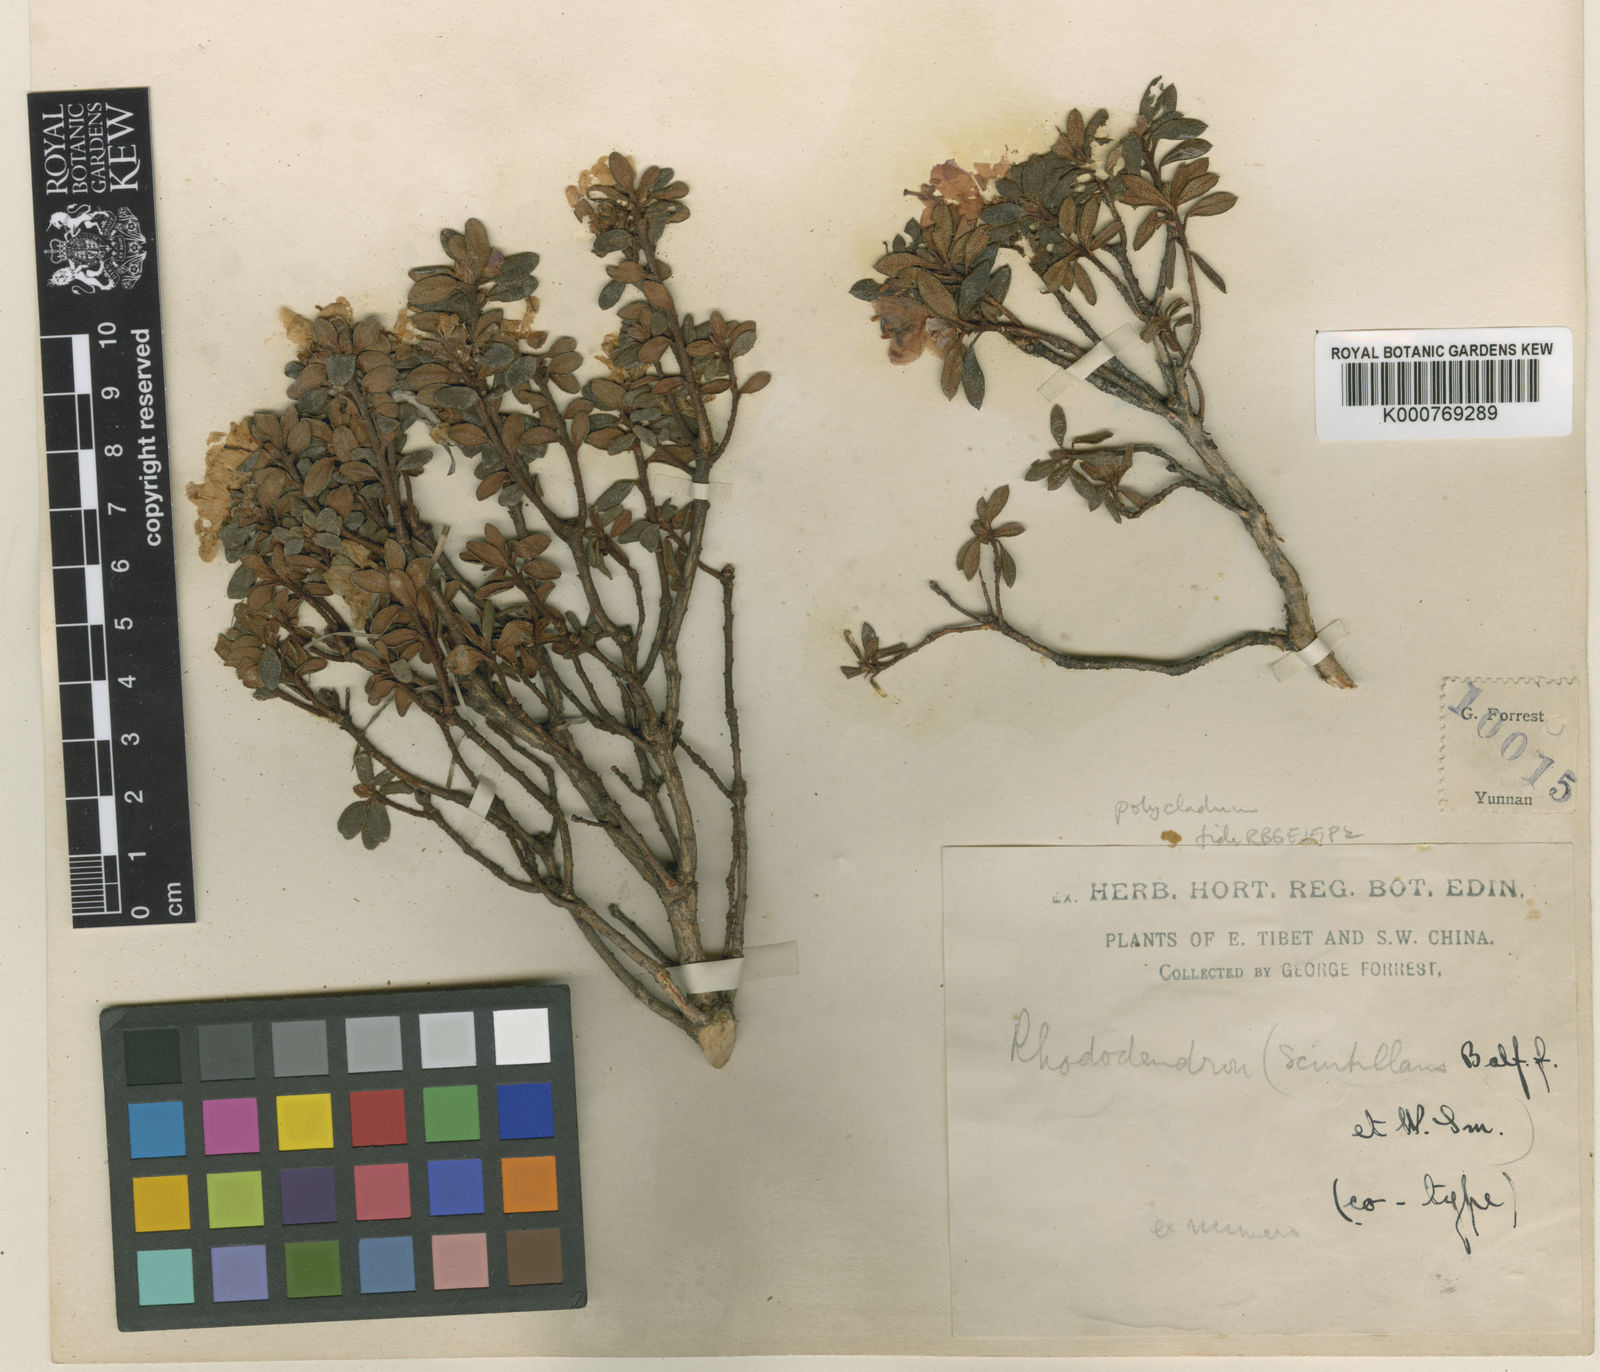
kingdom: Plantae
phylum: Tracheophyta
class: Magnoliopsida
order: Ericales
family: Ericaceae
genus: Rhododendron
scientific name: Rhododendron polycladum
